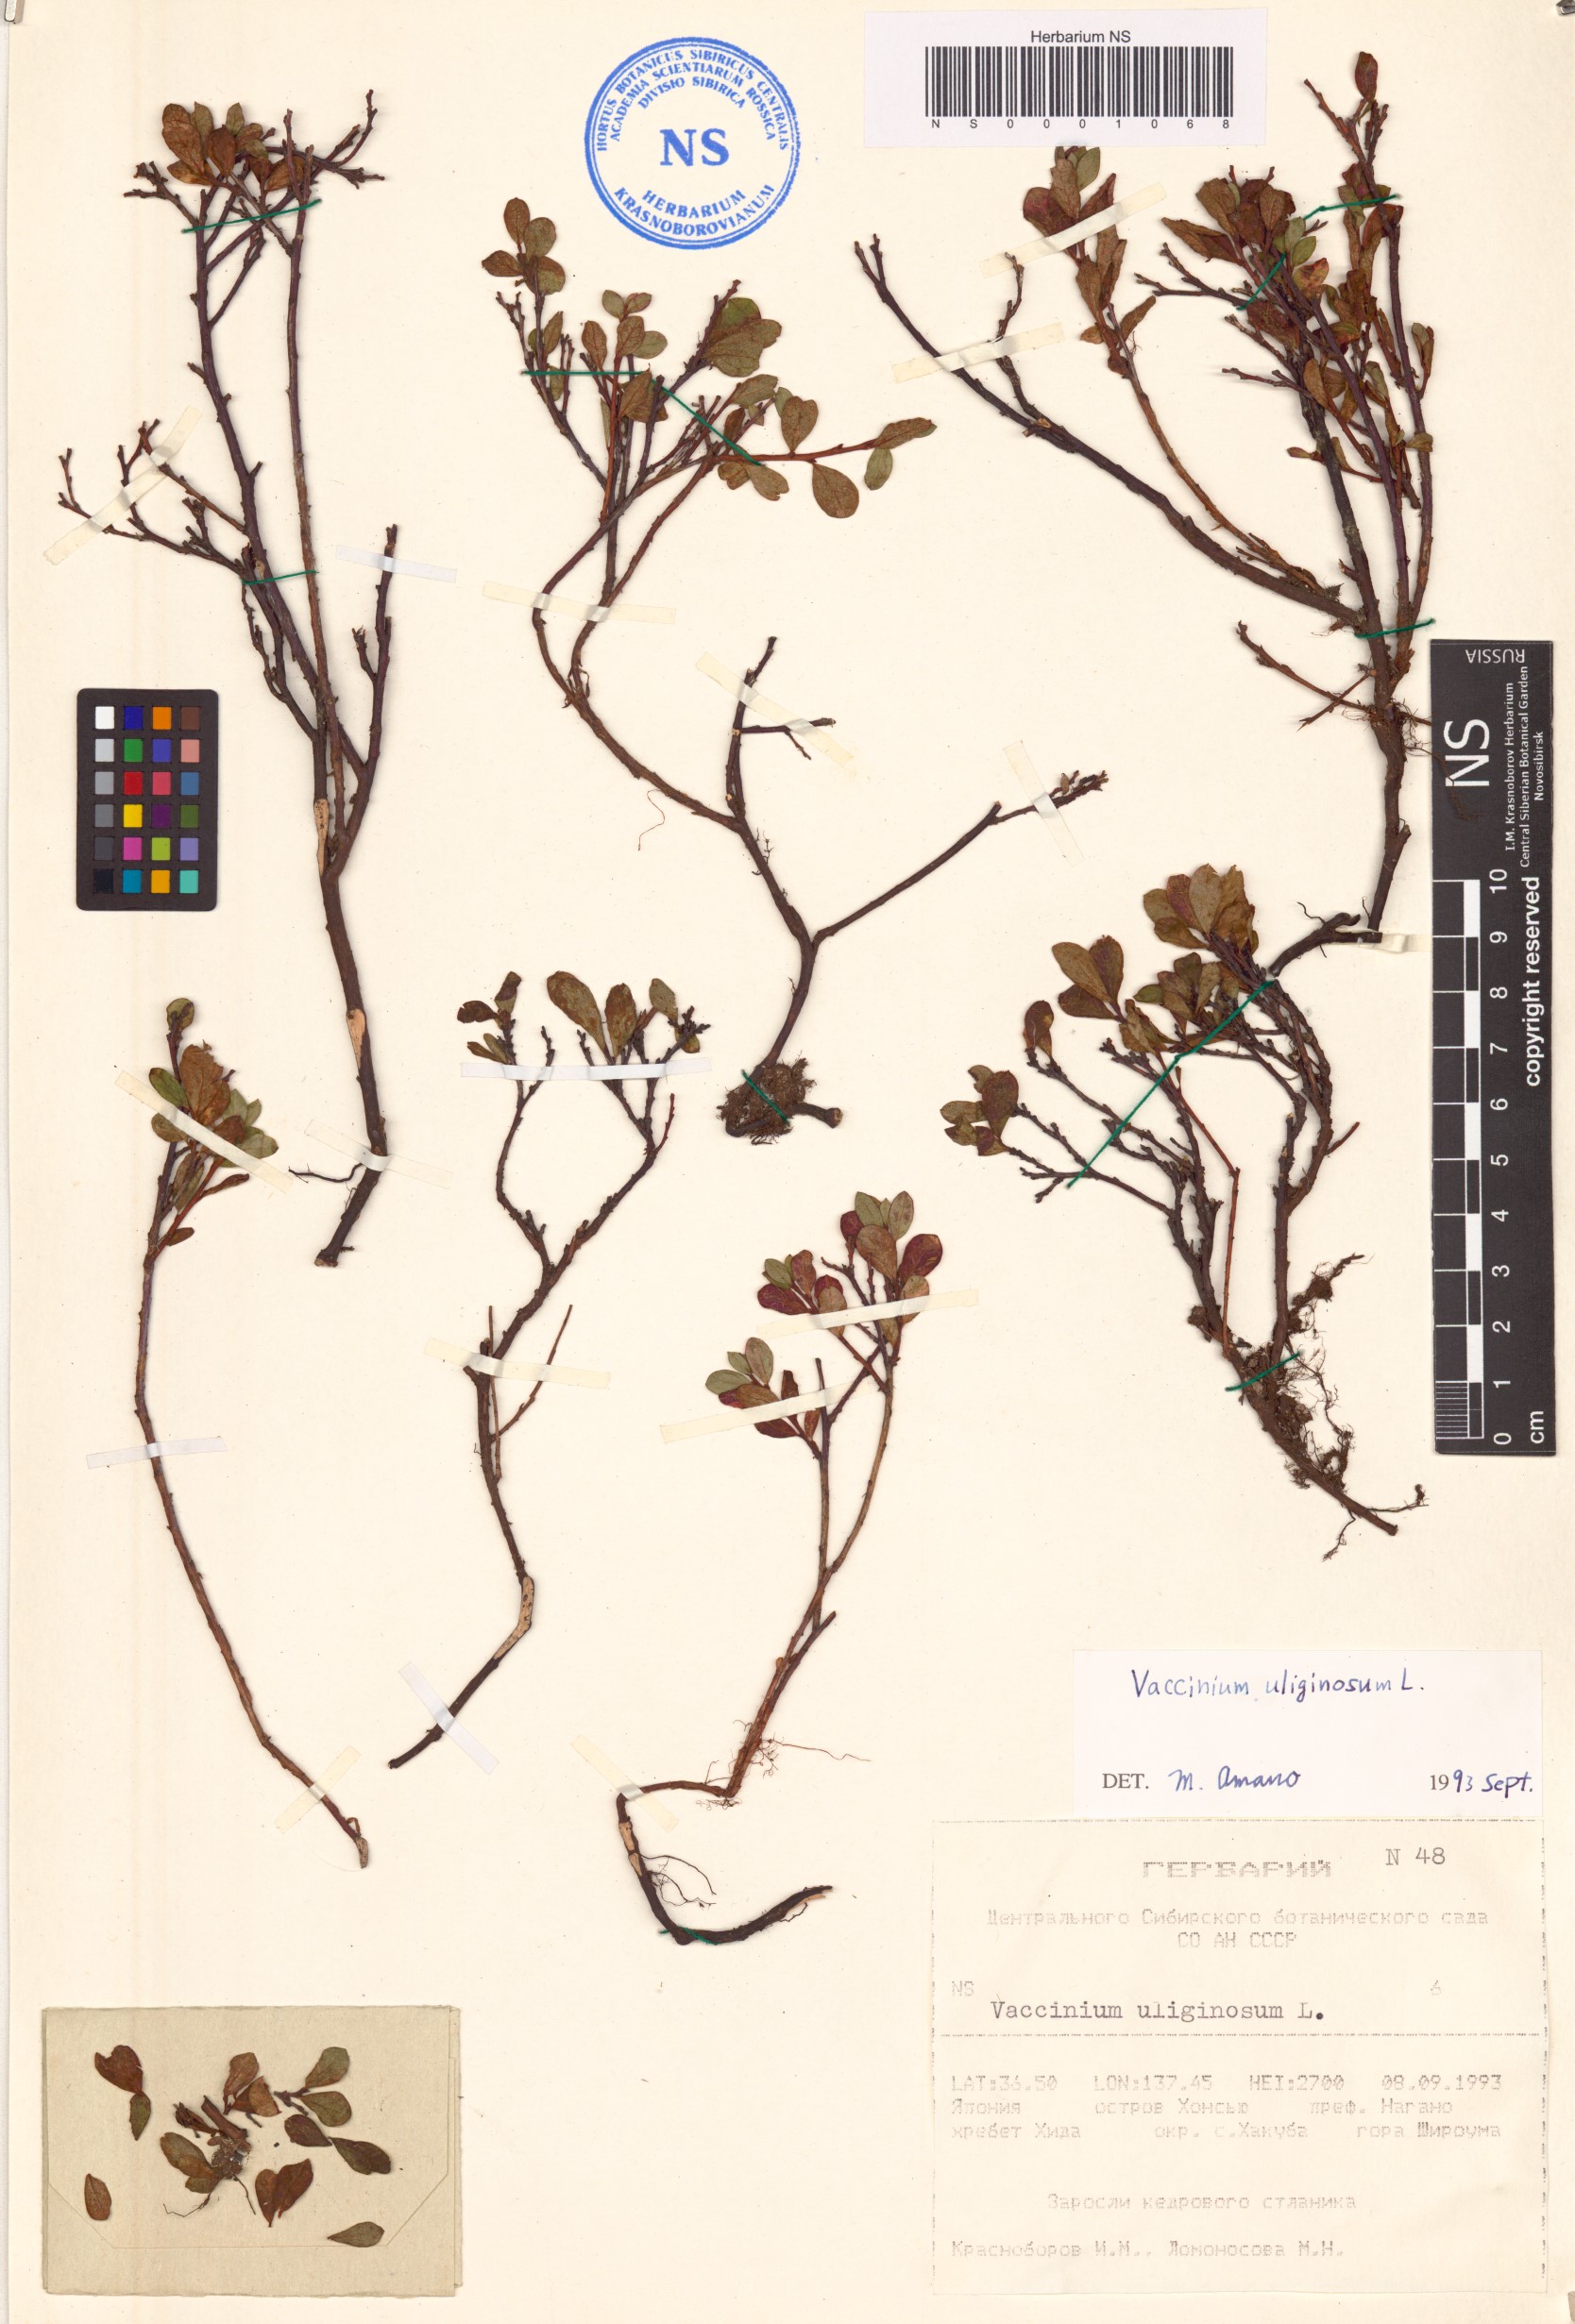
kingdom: Plantae
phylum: Tracheophyta
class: Magnoliopsida
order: Ericales
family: Ericaceae
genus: Vaccinium
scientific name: Vaccinium uliginosum
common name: Bog bilberry
